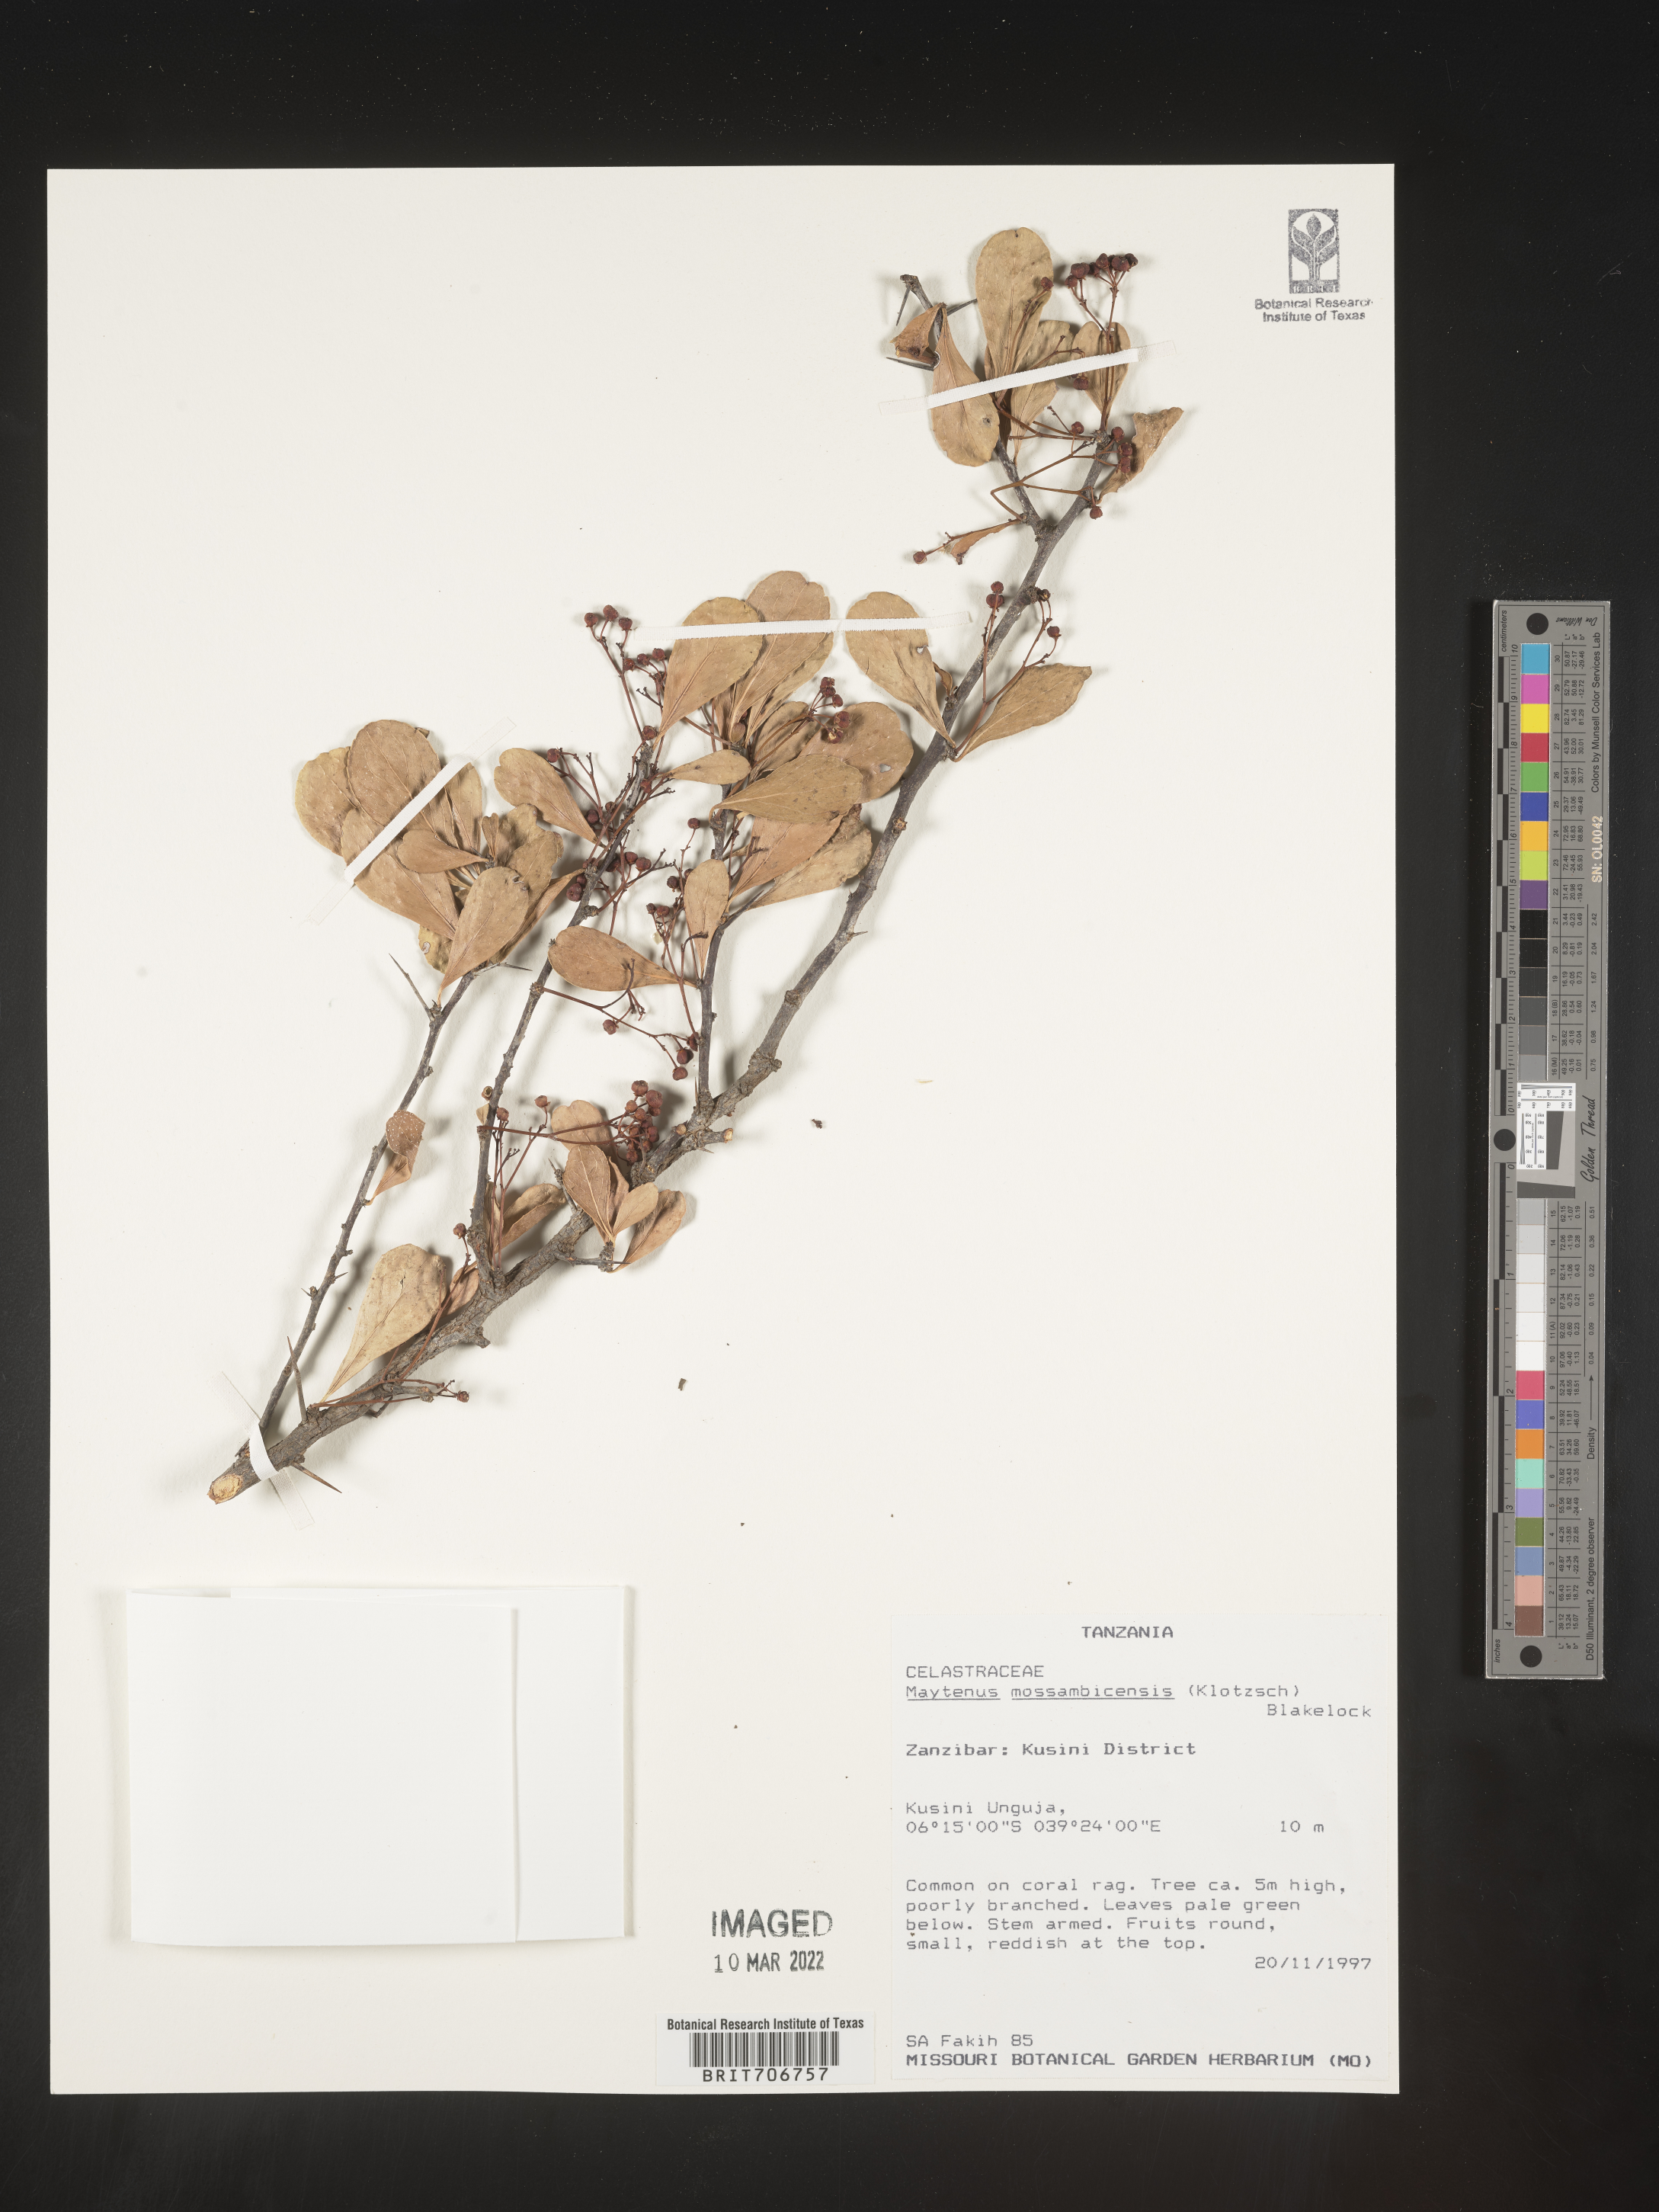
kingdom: Plantae
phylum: Tracheophyta
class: Magnoliopsida
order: Celastrales
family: Celastraceae
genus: Maytenus
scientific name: Maytenus
